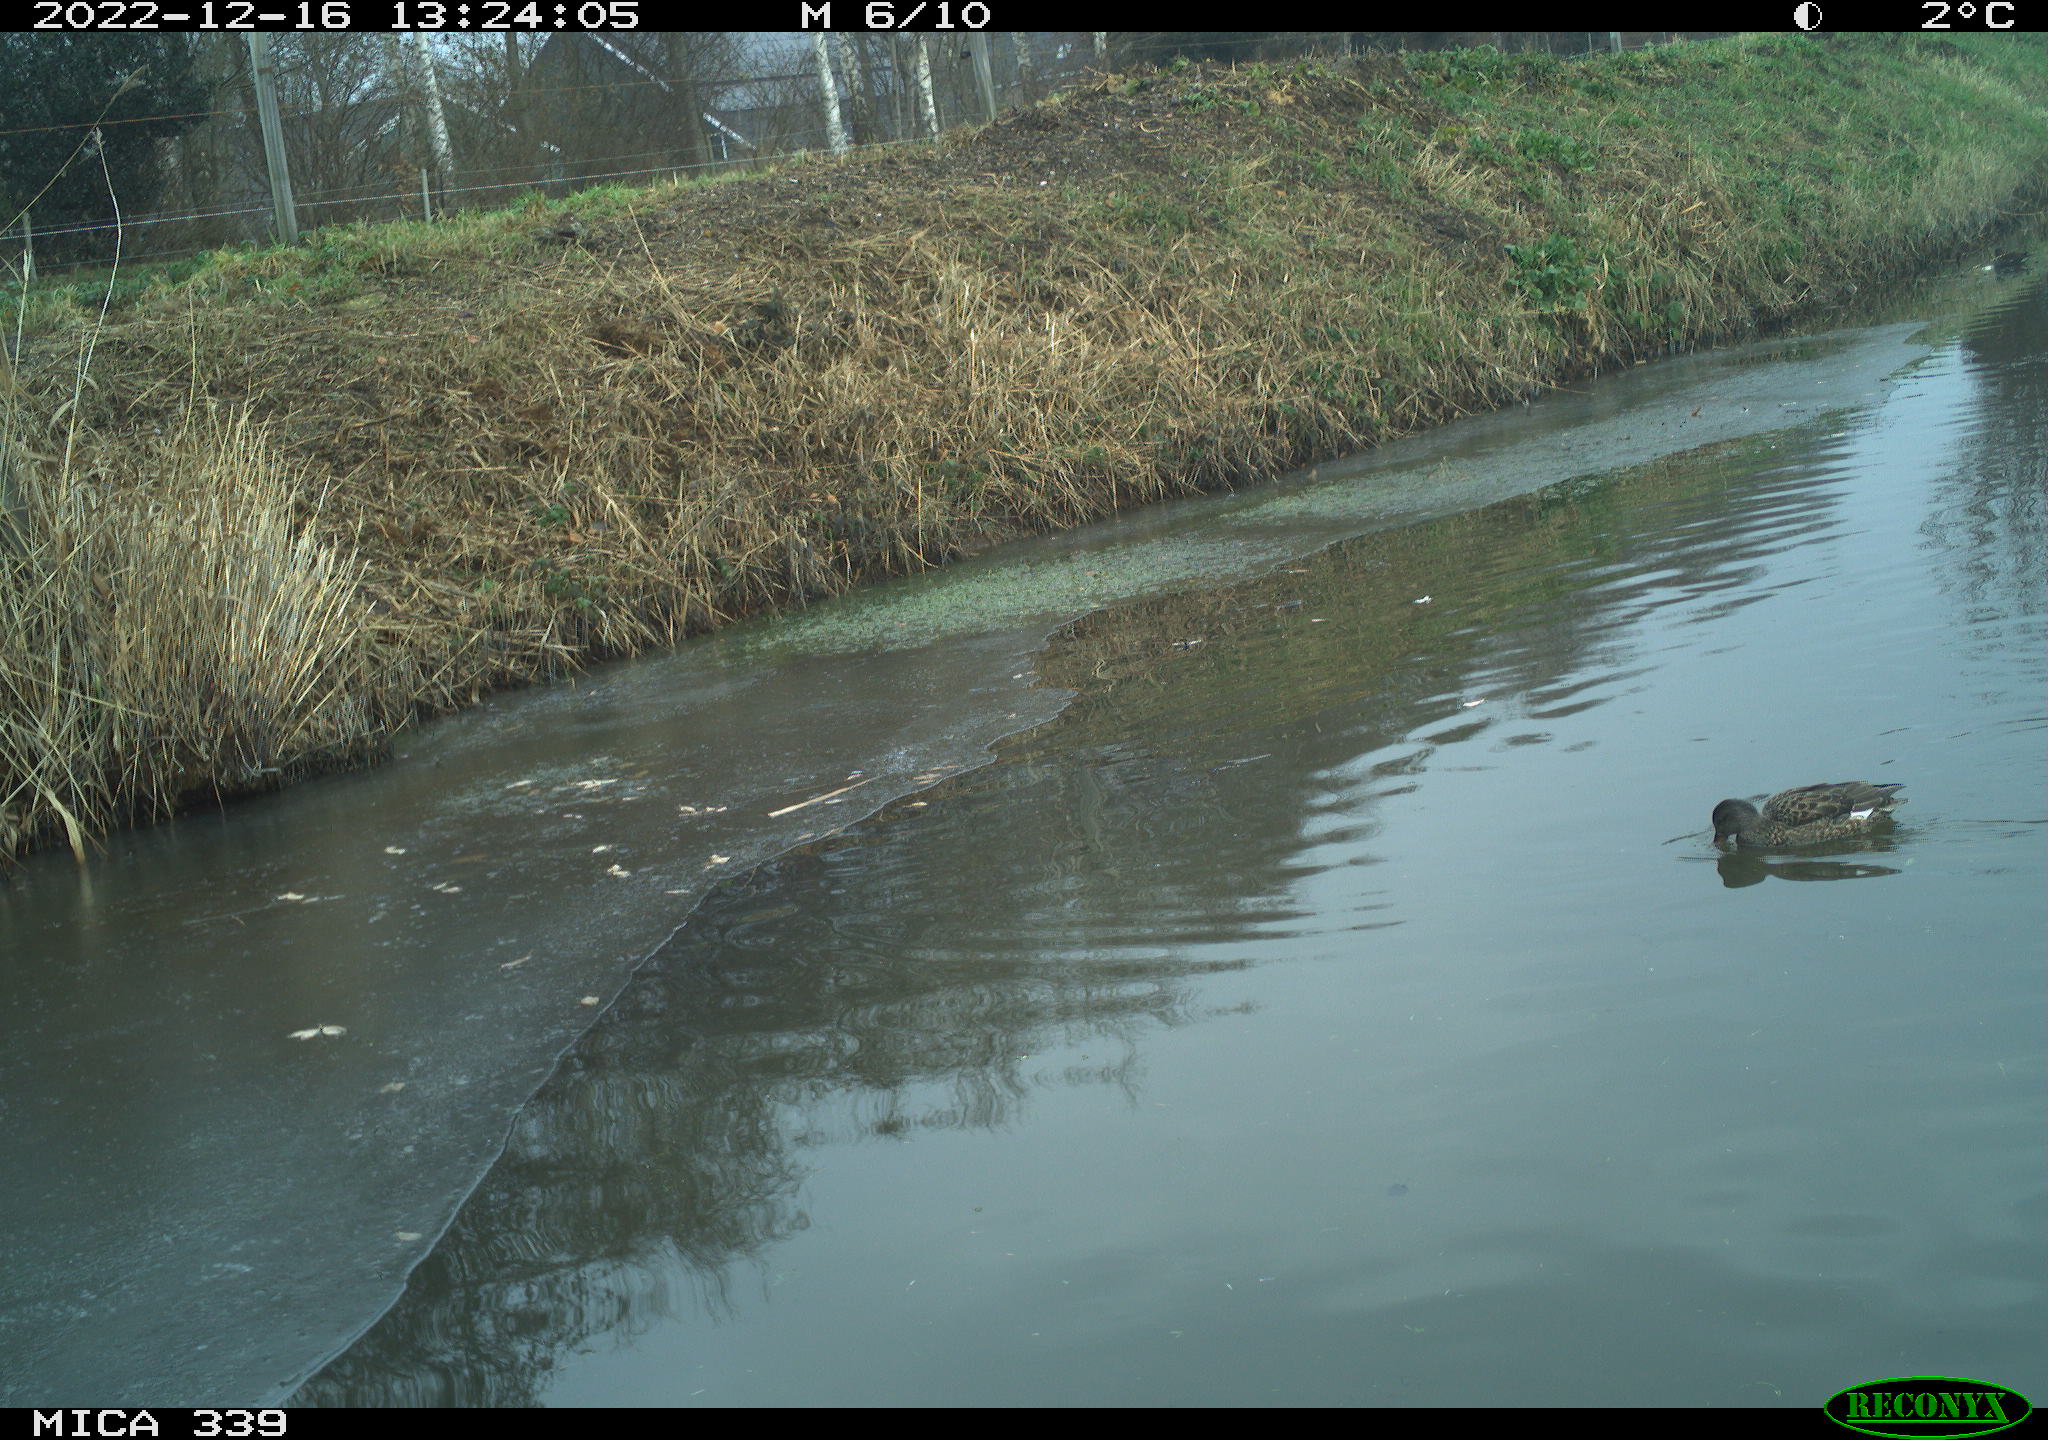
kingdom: Animalia
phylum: Chordata
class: Aves
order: Anseriformes
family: Anatidae
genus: Anas
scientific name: Anas
